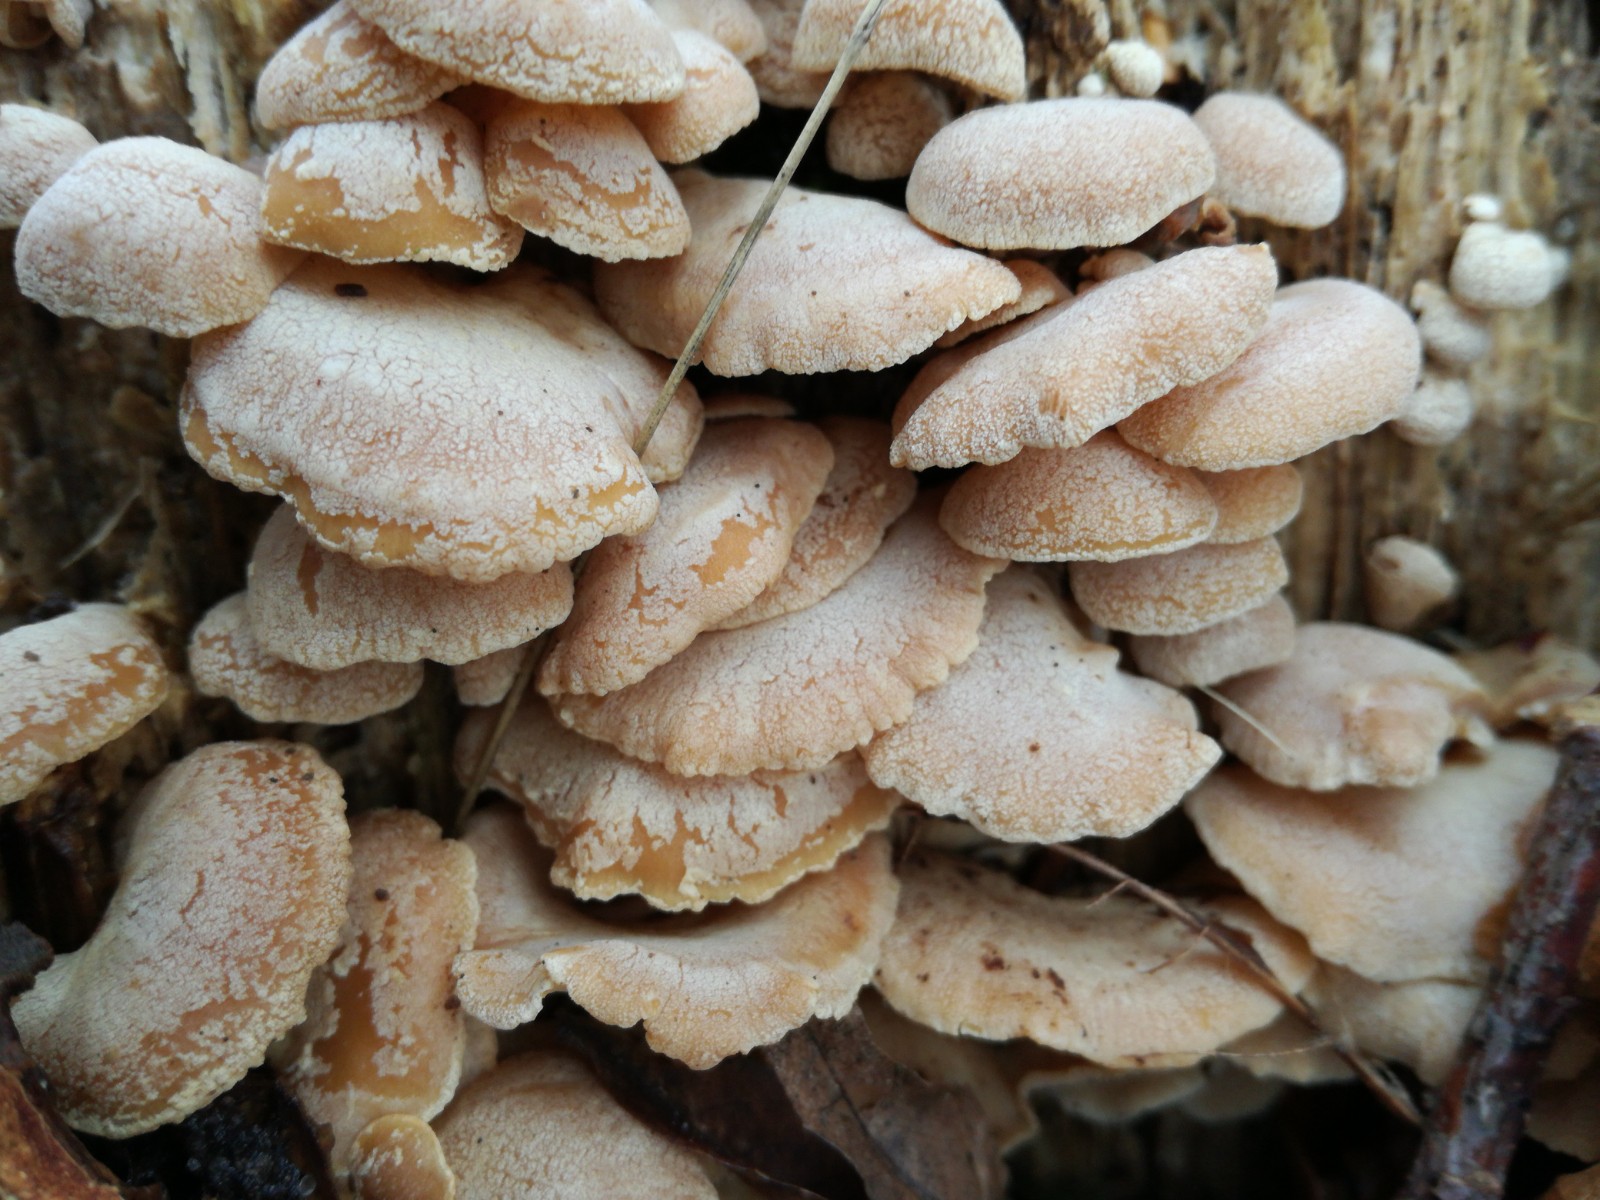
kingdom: Fungi
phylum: Basidiomycota
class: Agaricomycetes
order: Agaricales
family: Mycenaceae
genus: Panellus
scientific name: Panellus stipticus
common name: kliddet epaulethat
